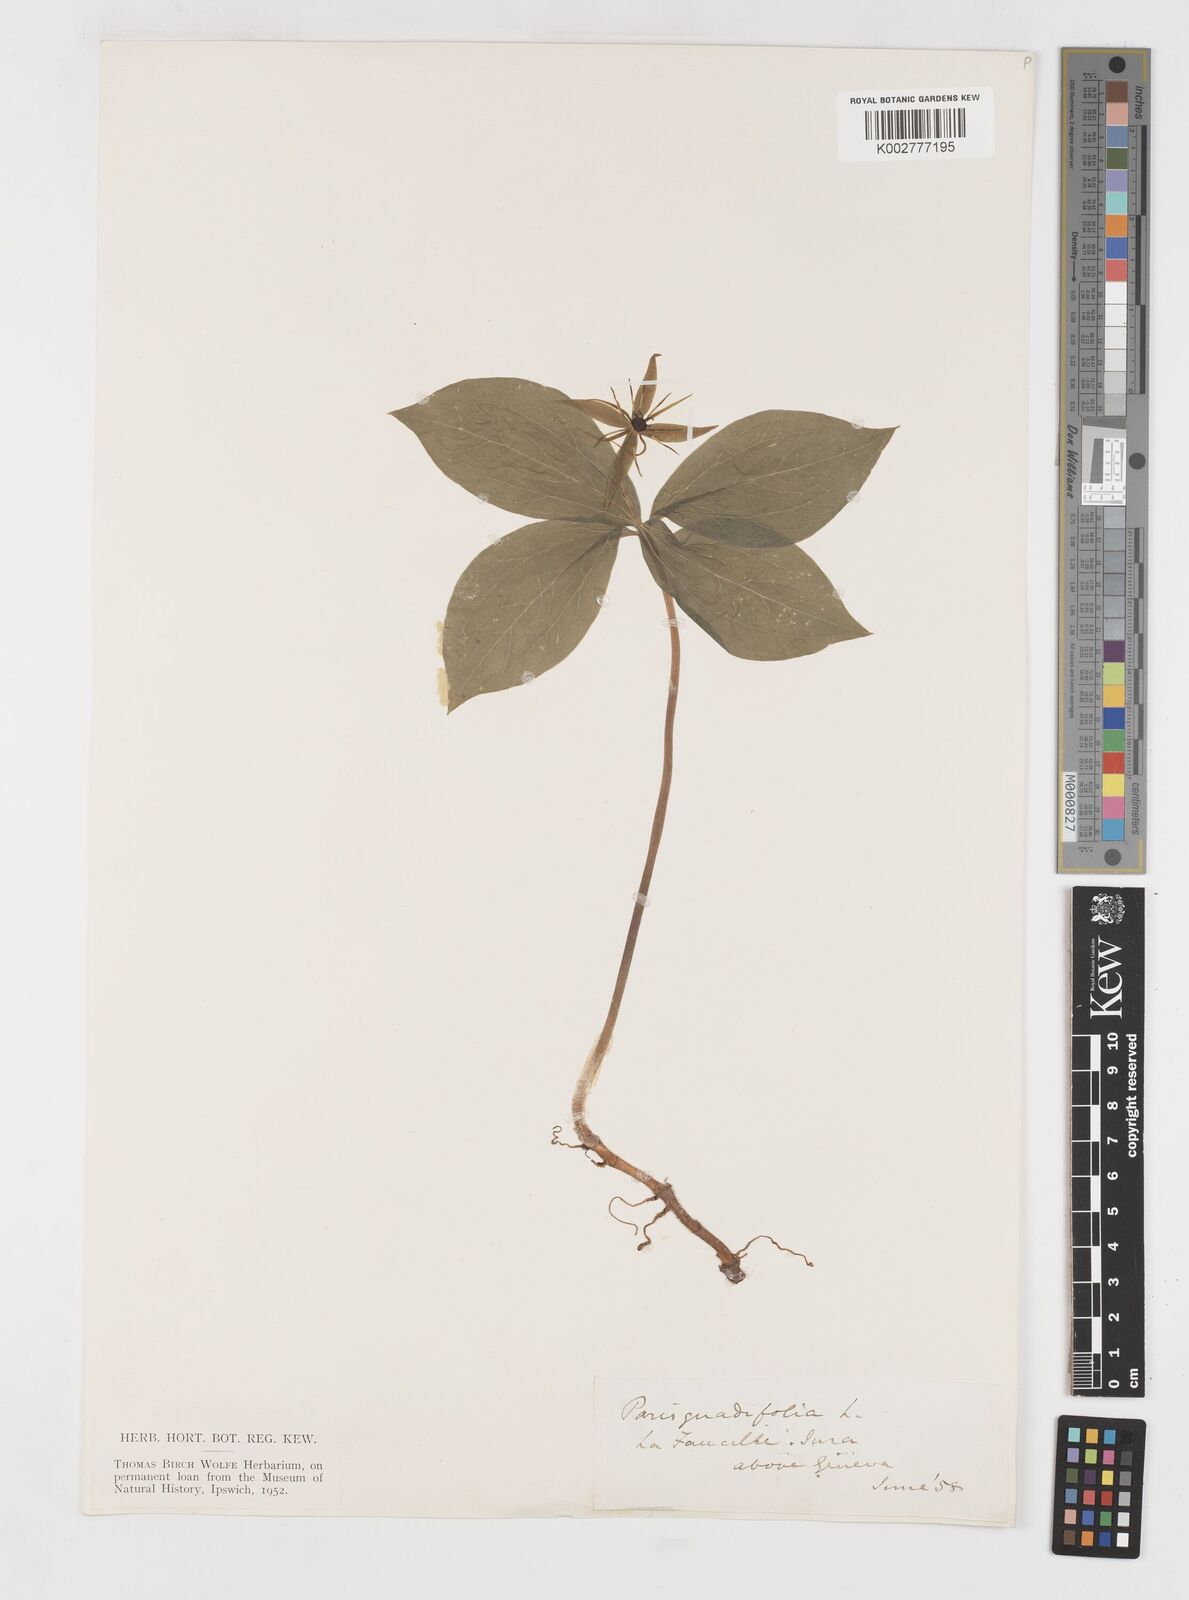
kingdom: Plantae
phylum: Tracheophyta
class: Liliopsida
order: Liliales
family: Melanthiaceae
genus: Paris
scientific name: Paris quadrifolia
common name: Herb-paris
